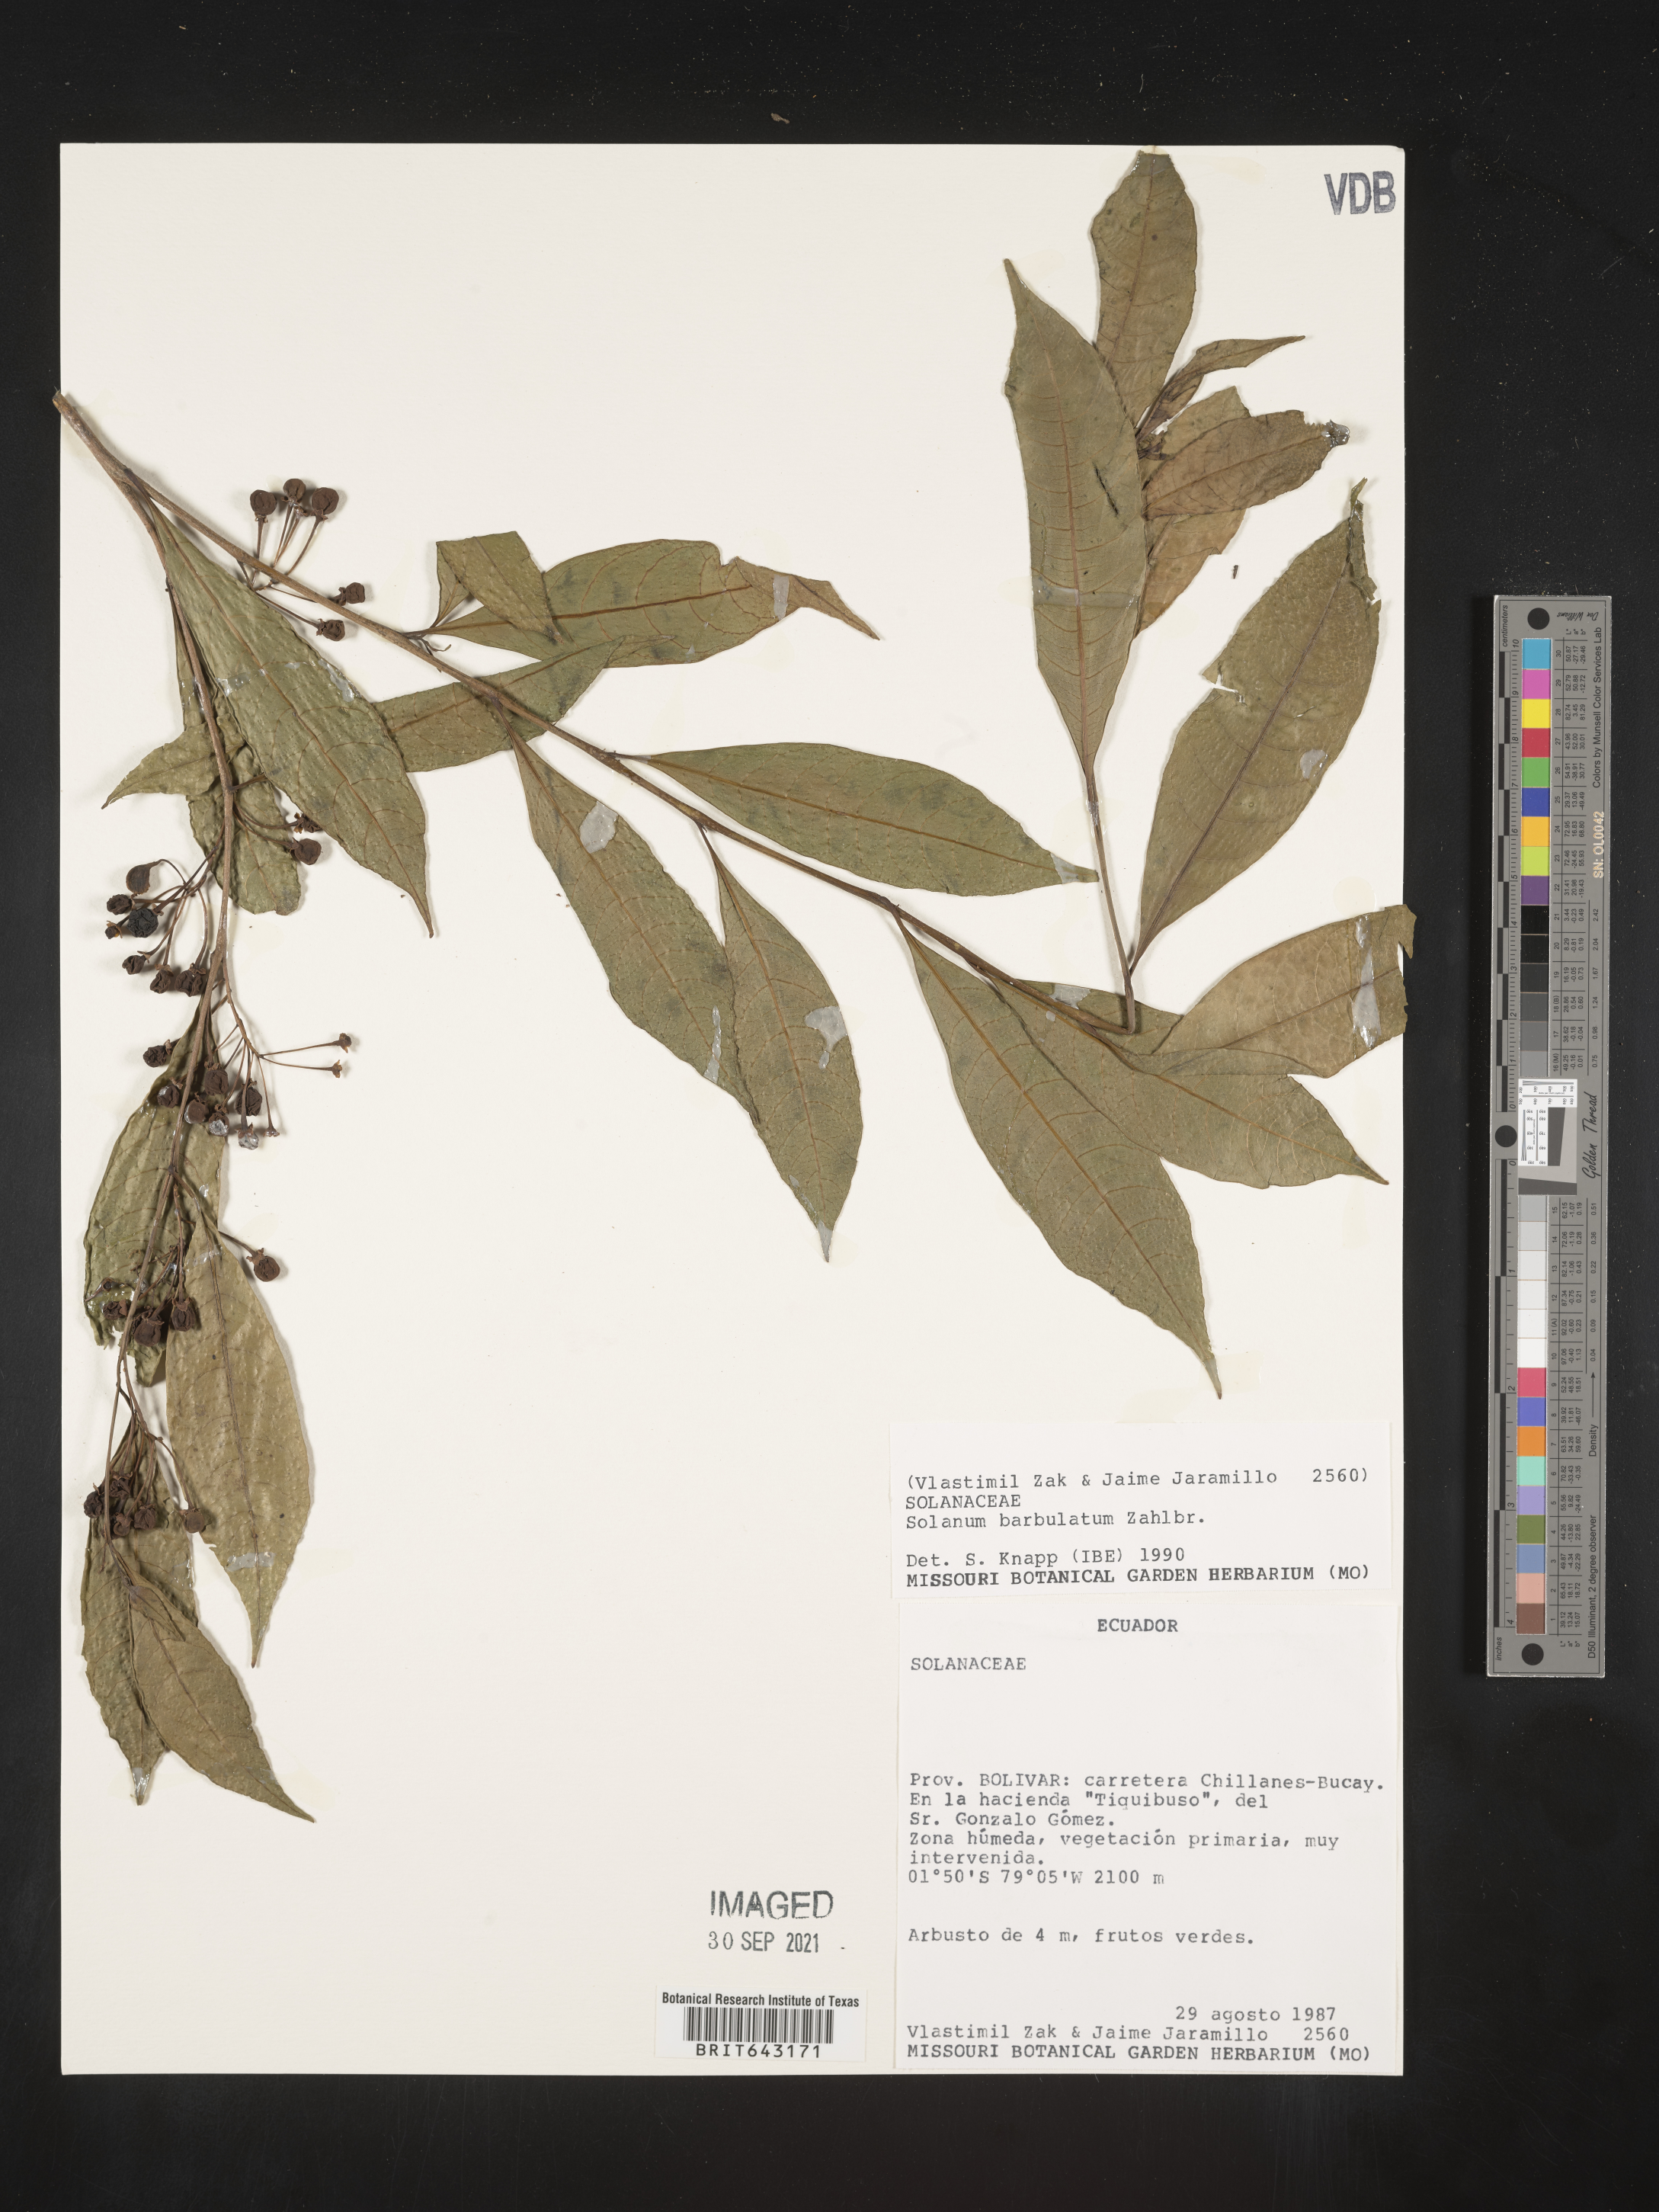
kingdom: Plantae
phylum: Tracheophyta
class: Magnoliopsida
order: Solanales
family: Solanaceae
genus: Solanum
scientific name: Solanum
